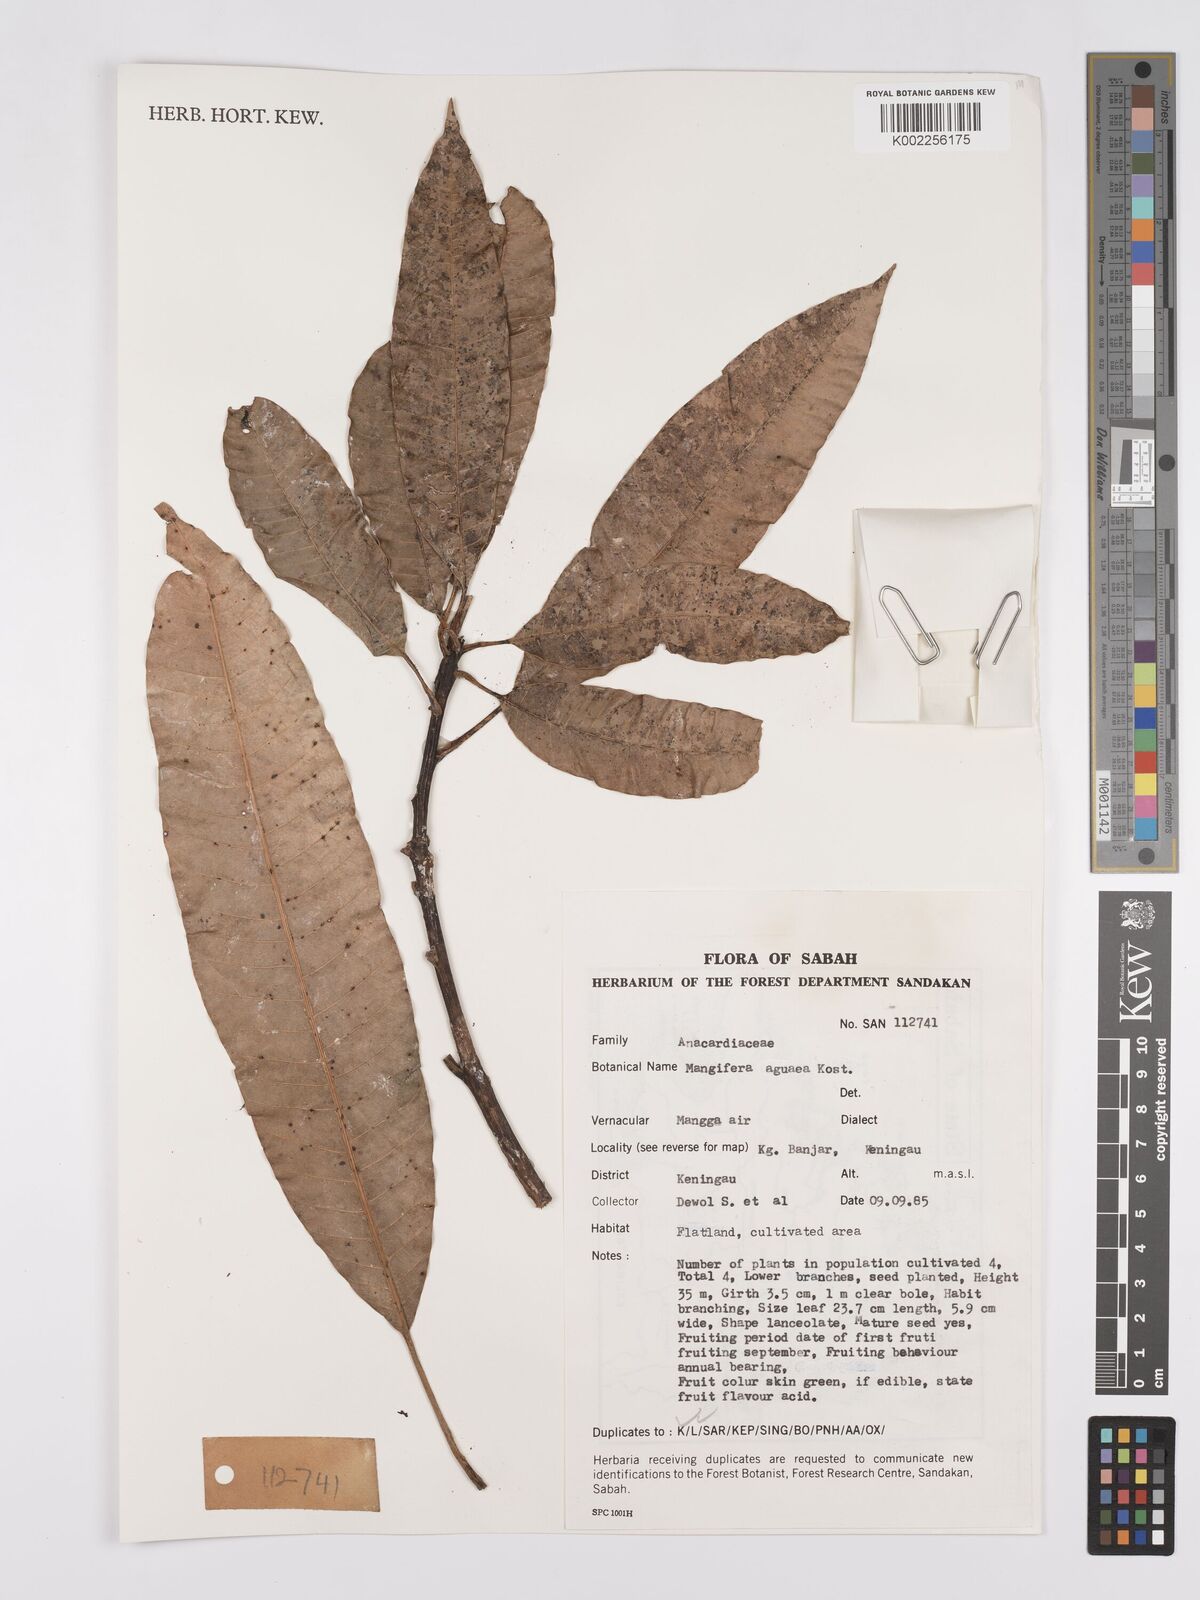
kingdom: Plantae
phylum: Tracheophyta
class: Magnoliopsida
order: Sapindales
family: Anacardiaceae
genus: Mangifera
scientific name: Mangifera laurina
